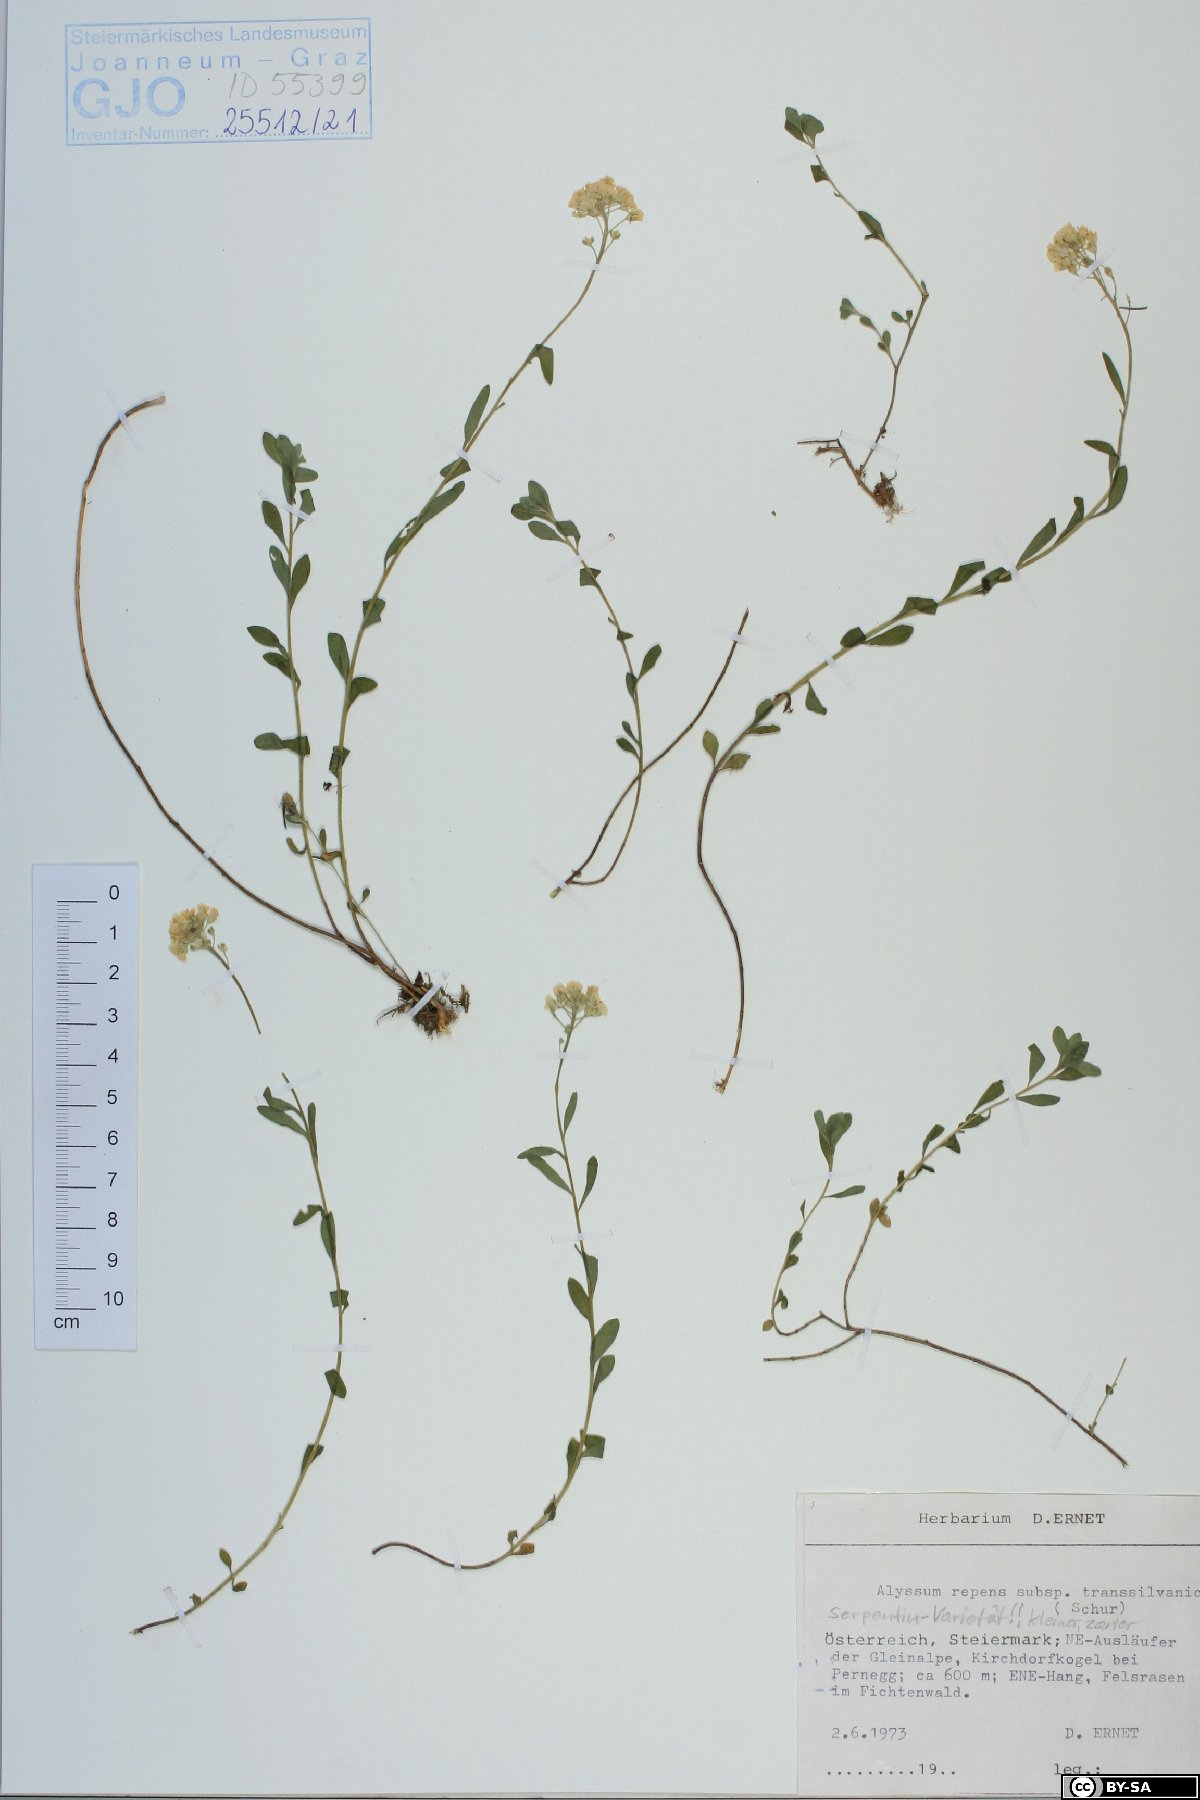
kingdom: Plantae
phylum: Tracheophyta
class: Magnoliopsida
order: Brassicales
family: Brassicaceae
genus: Alyssum
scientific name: Alyssum repens
